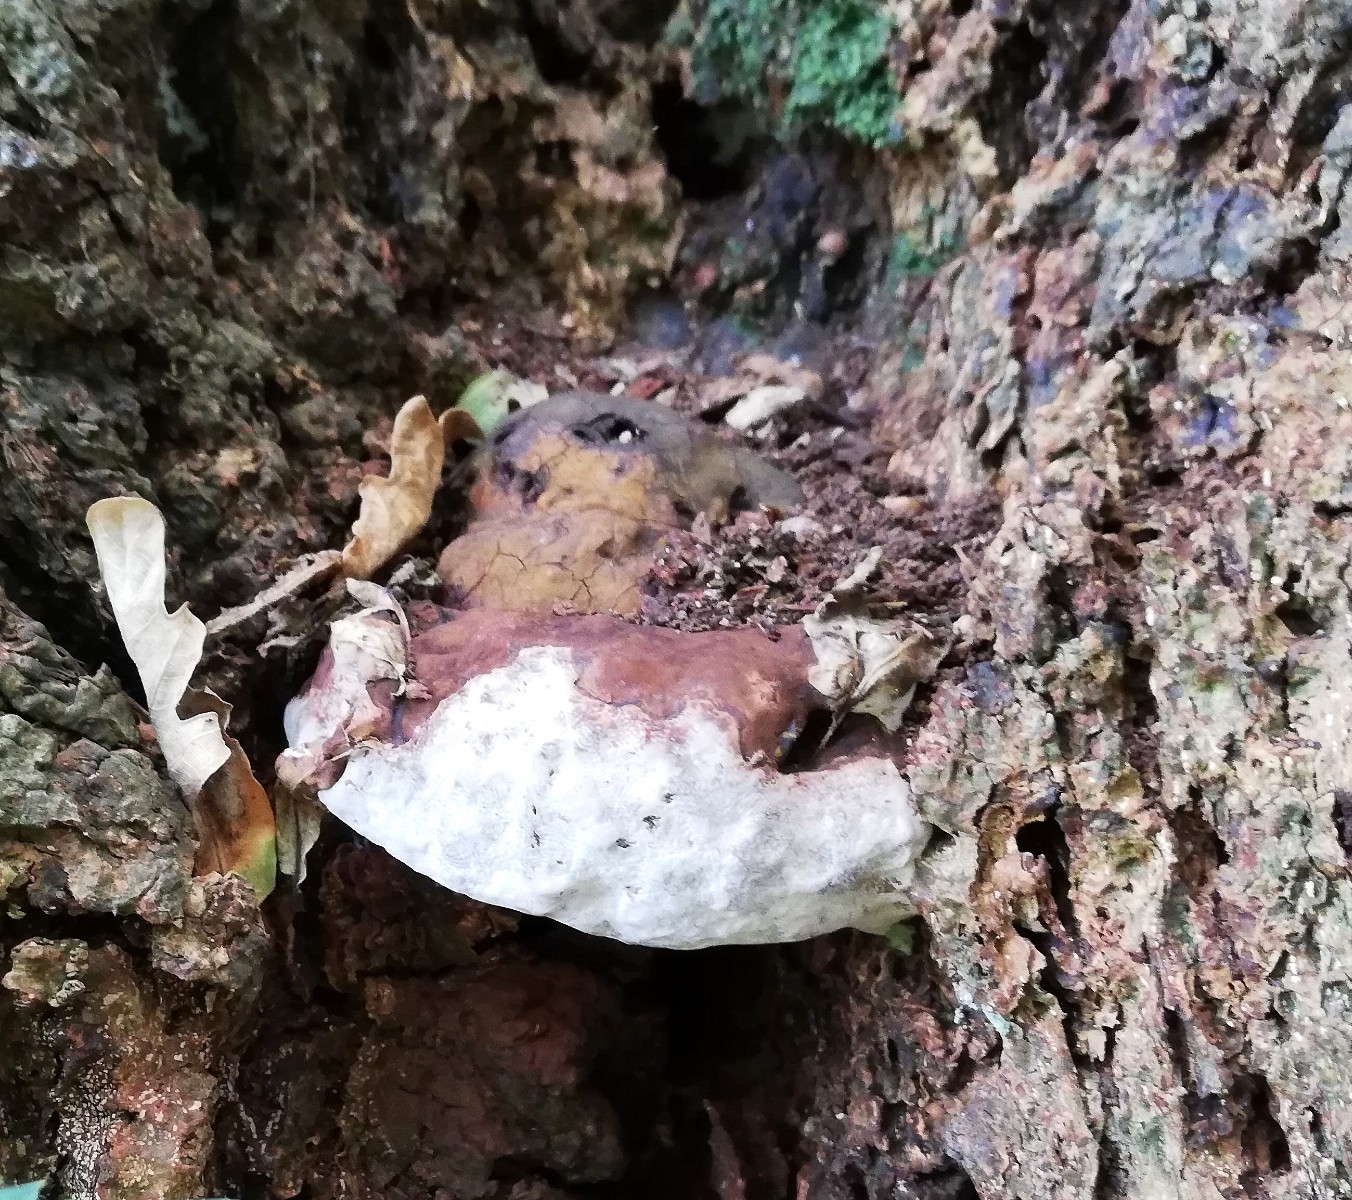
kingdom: Fungi
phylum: Basidiomycota
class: Agaricomycetes
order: Polyporales
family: Polyporaceae
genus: Ganoderma
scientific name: Ganoderma adspersum
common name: grov lakporesvamp
